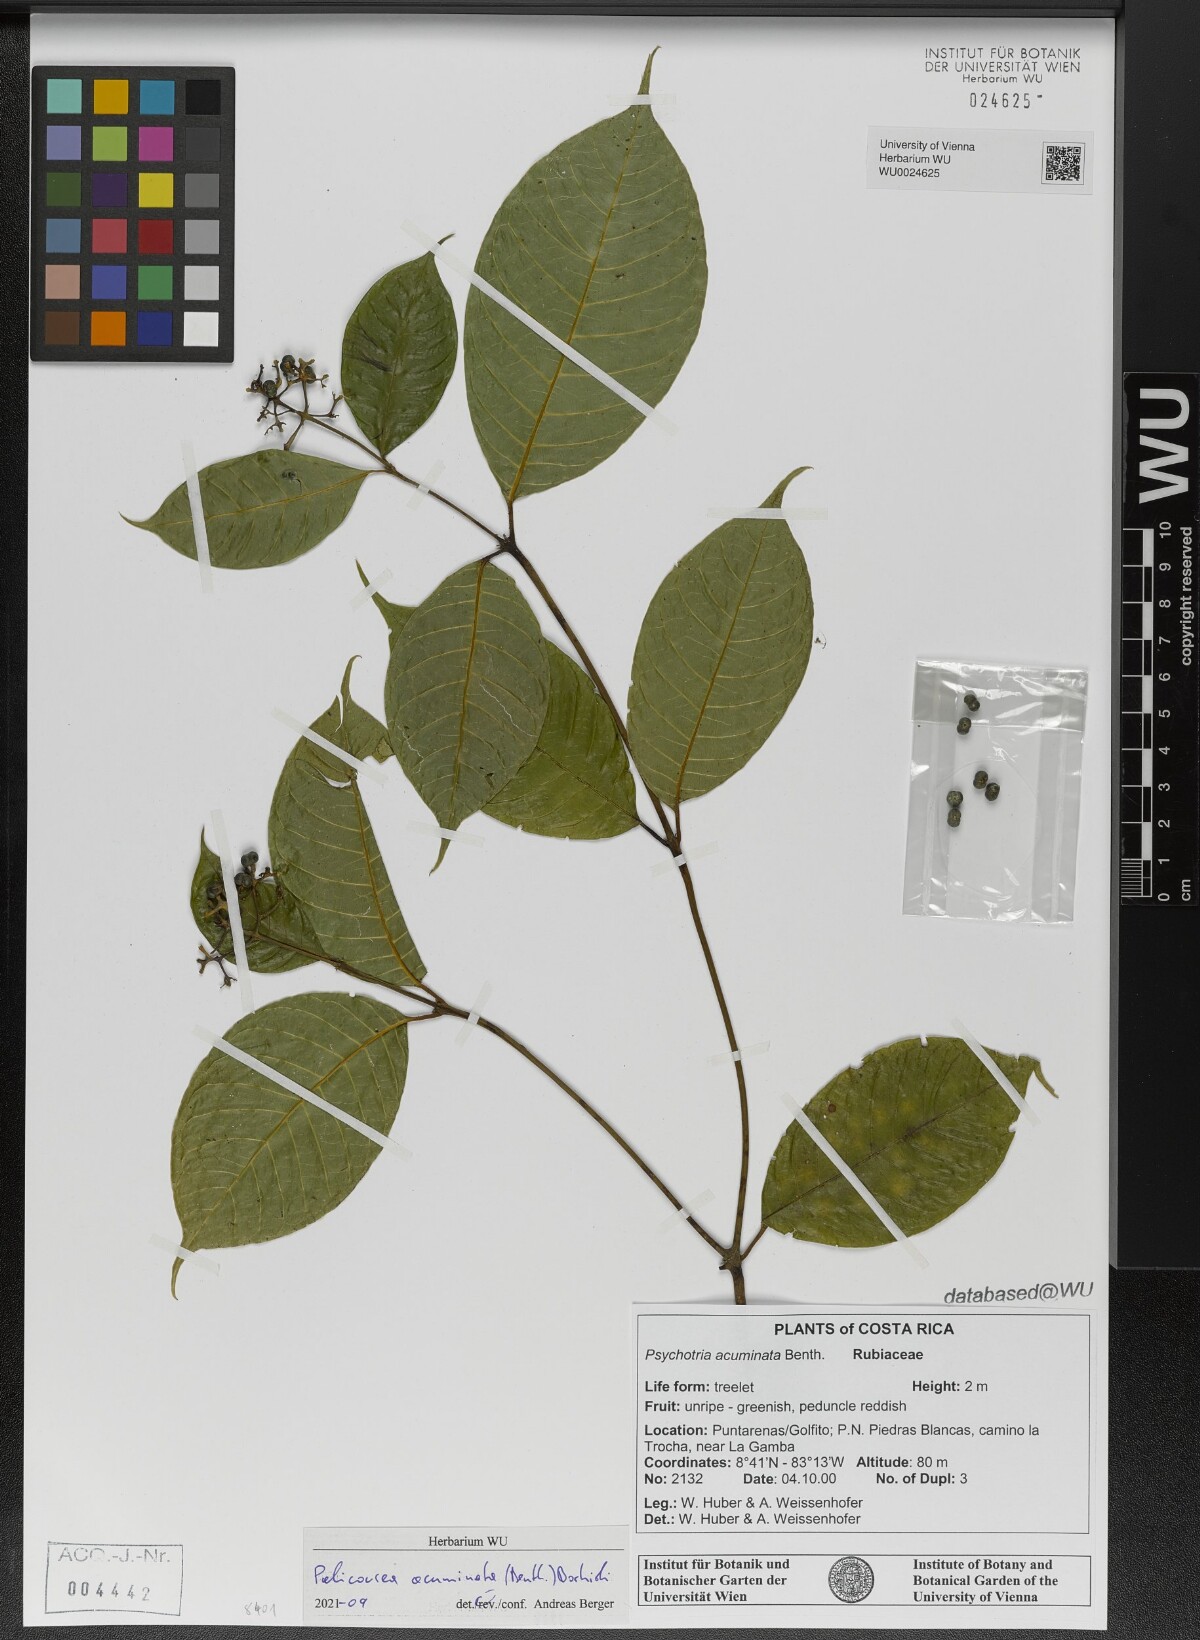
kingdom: Plantae
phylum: Tracheophyta
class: Magnoliopsida
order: Gentianales
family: Rubiaceae
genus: Palicourea
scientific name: Palicourea acuminata
